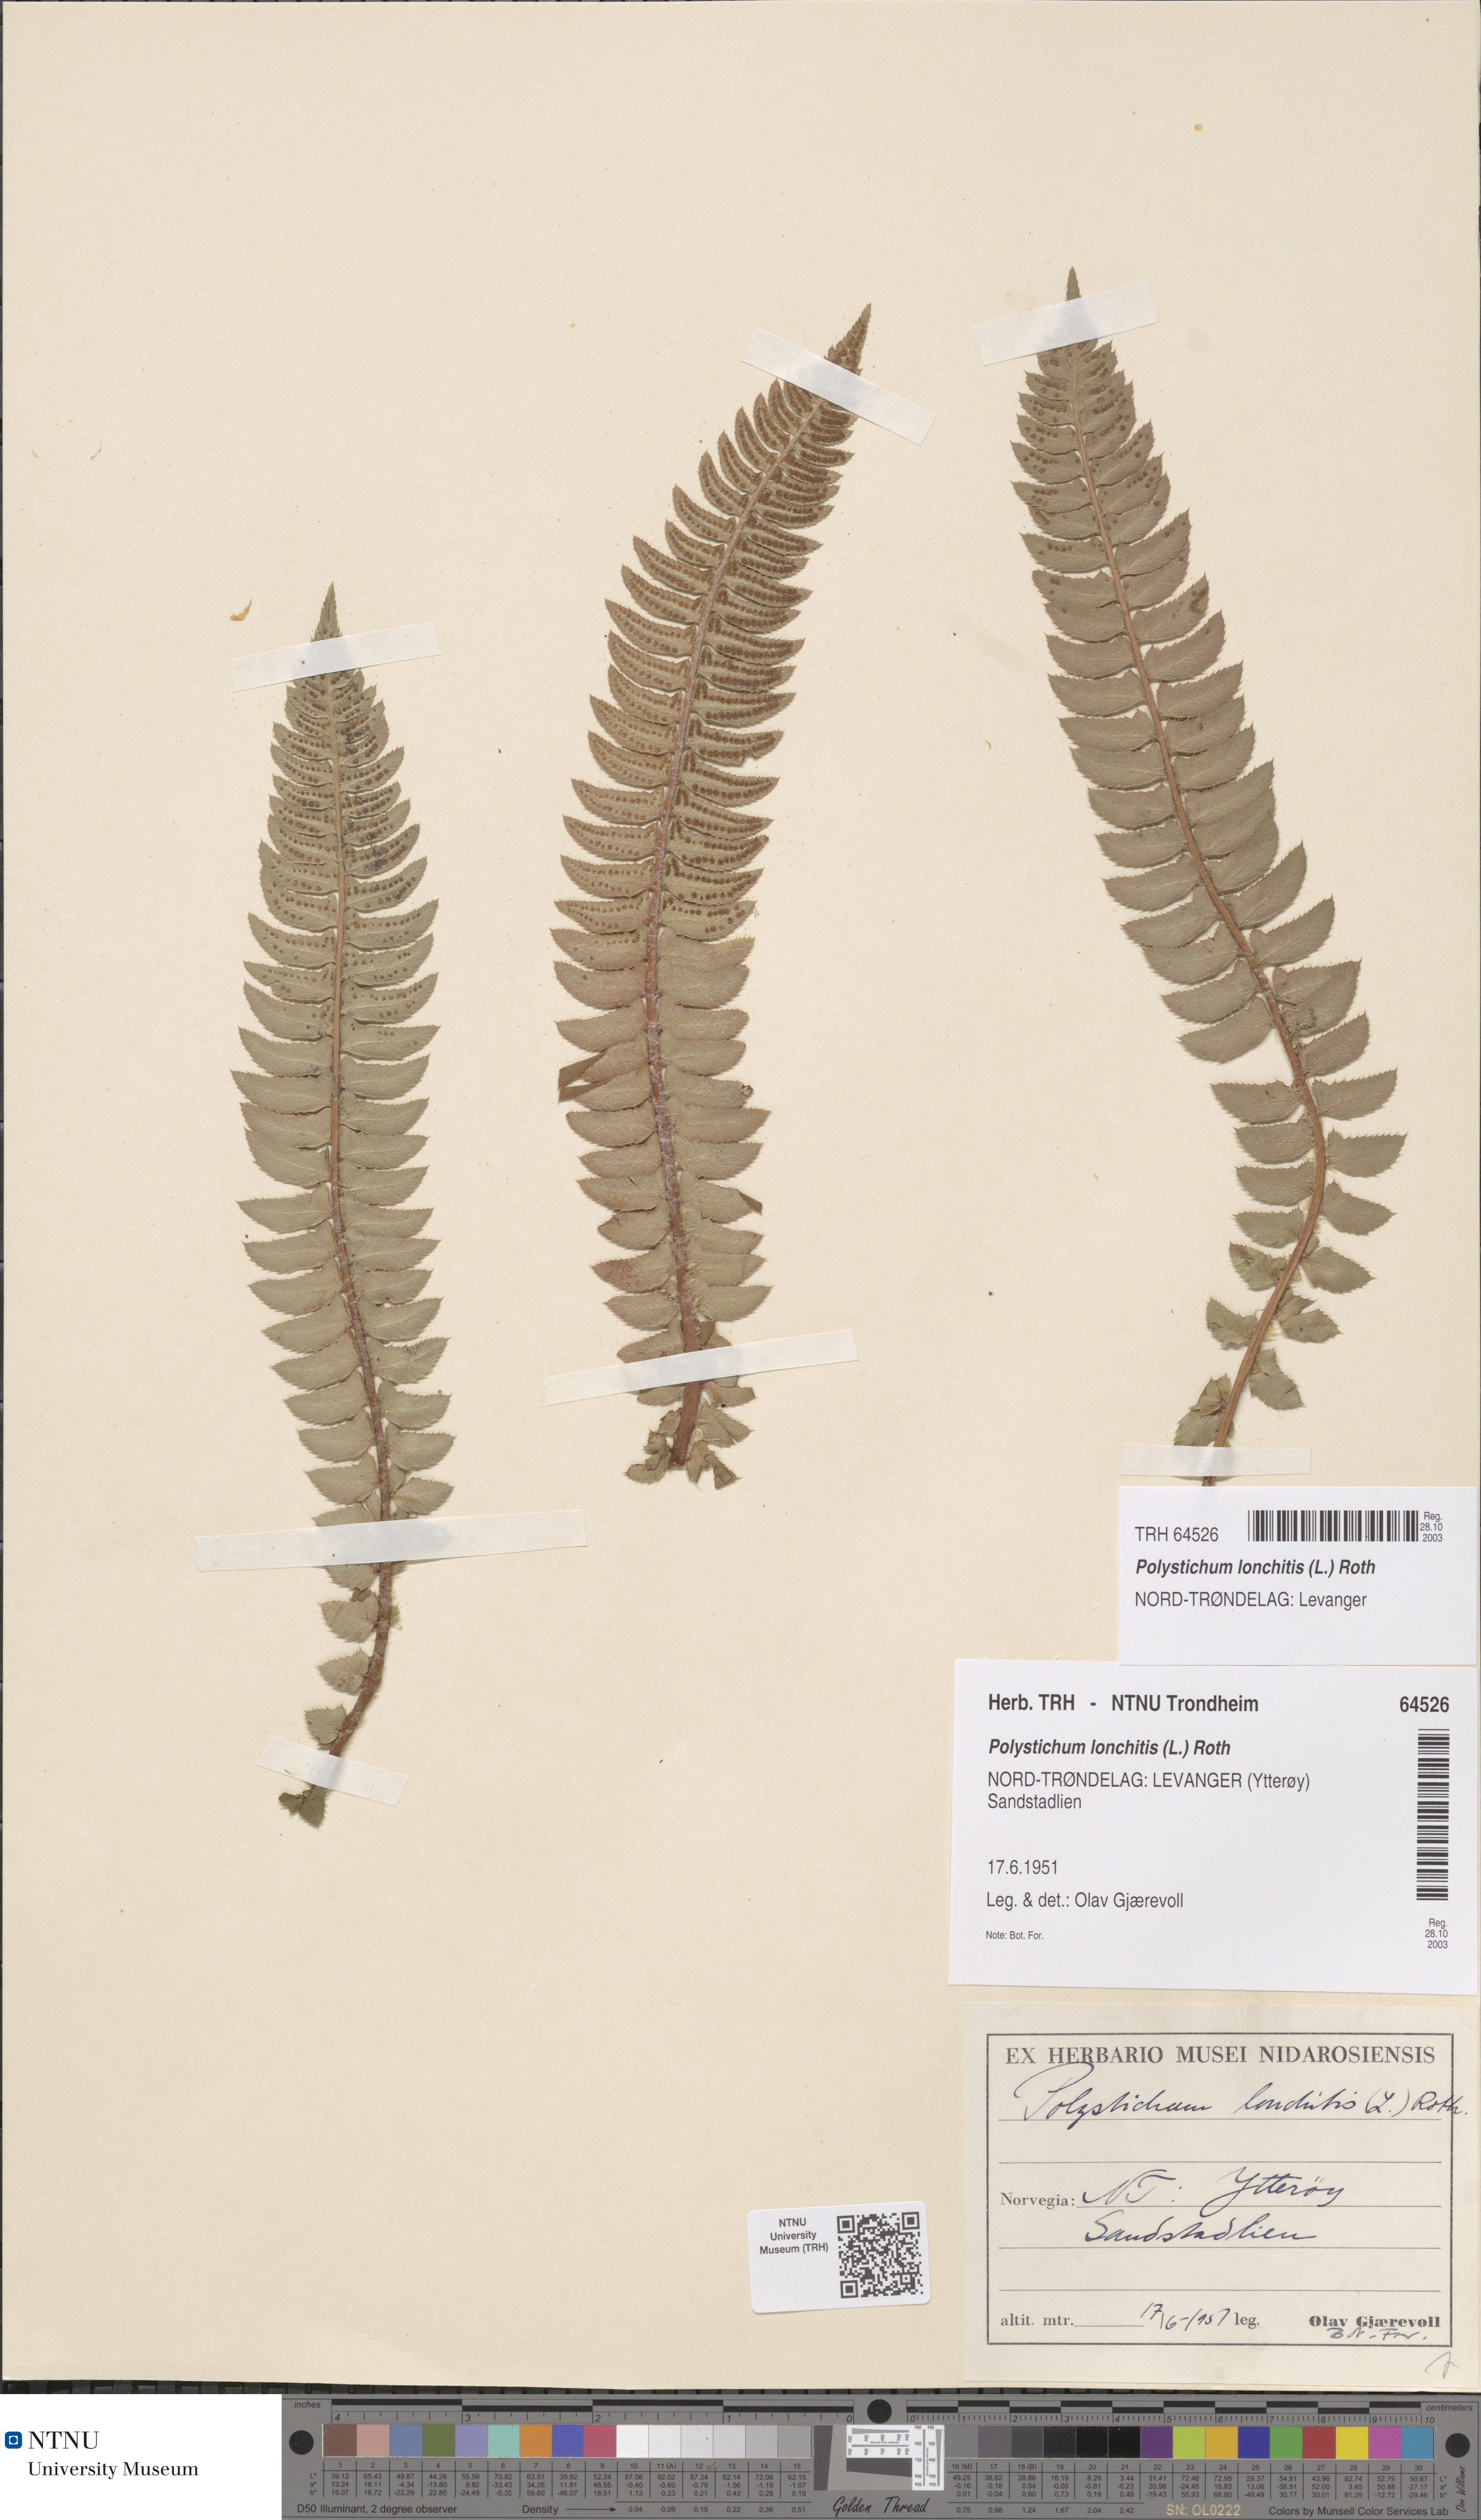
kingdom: Plantae
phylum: Tracheophyta
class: Polypodiopsida
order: Polypodiales
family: Dryopteridaceae
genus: Polystichum
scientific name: Polystichum lonchitis
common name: Holly fern
